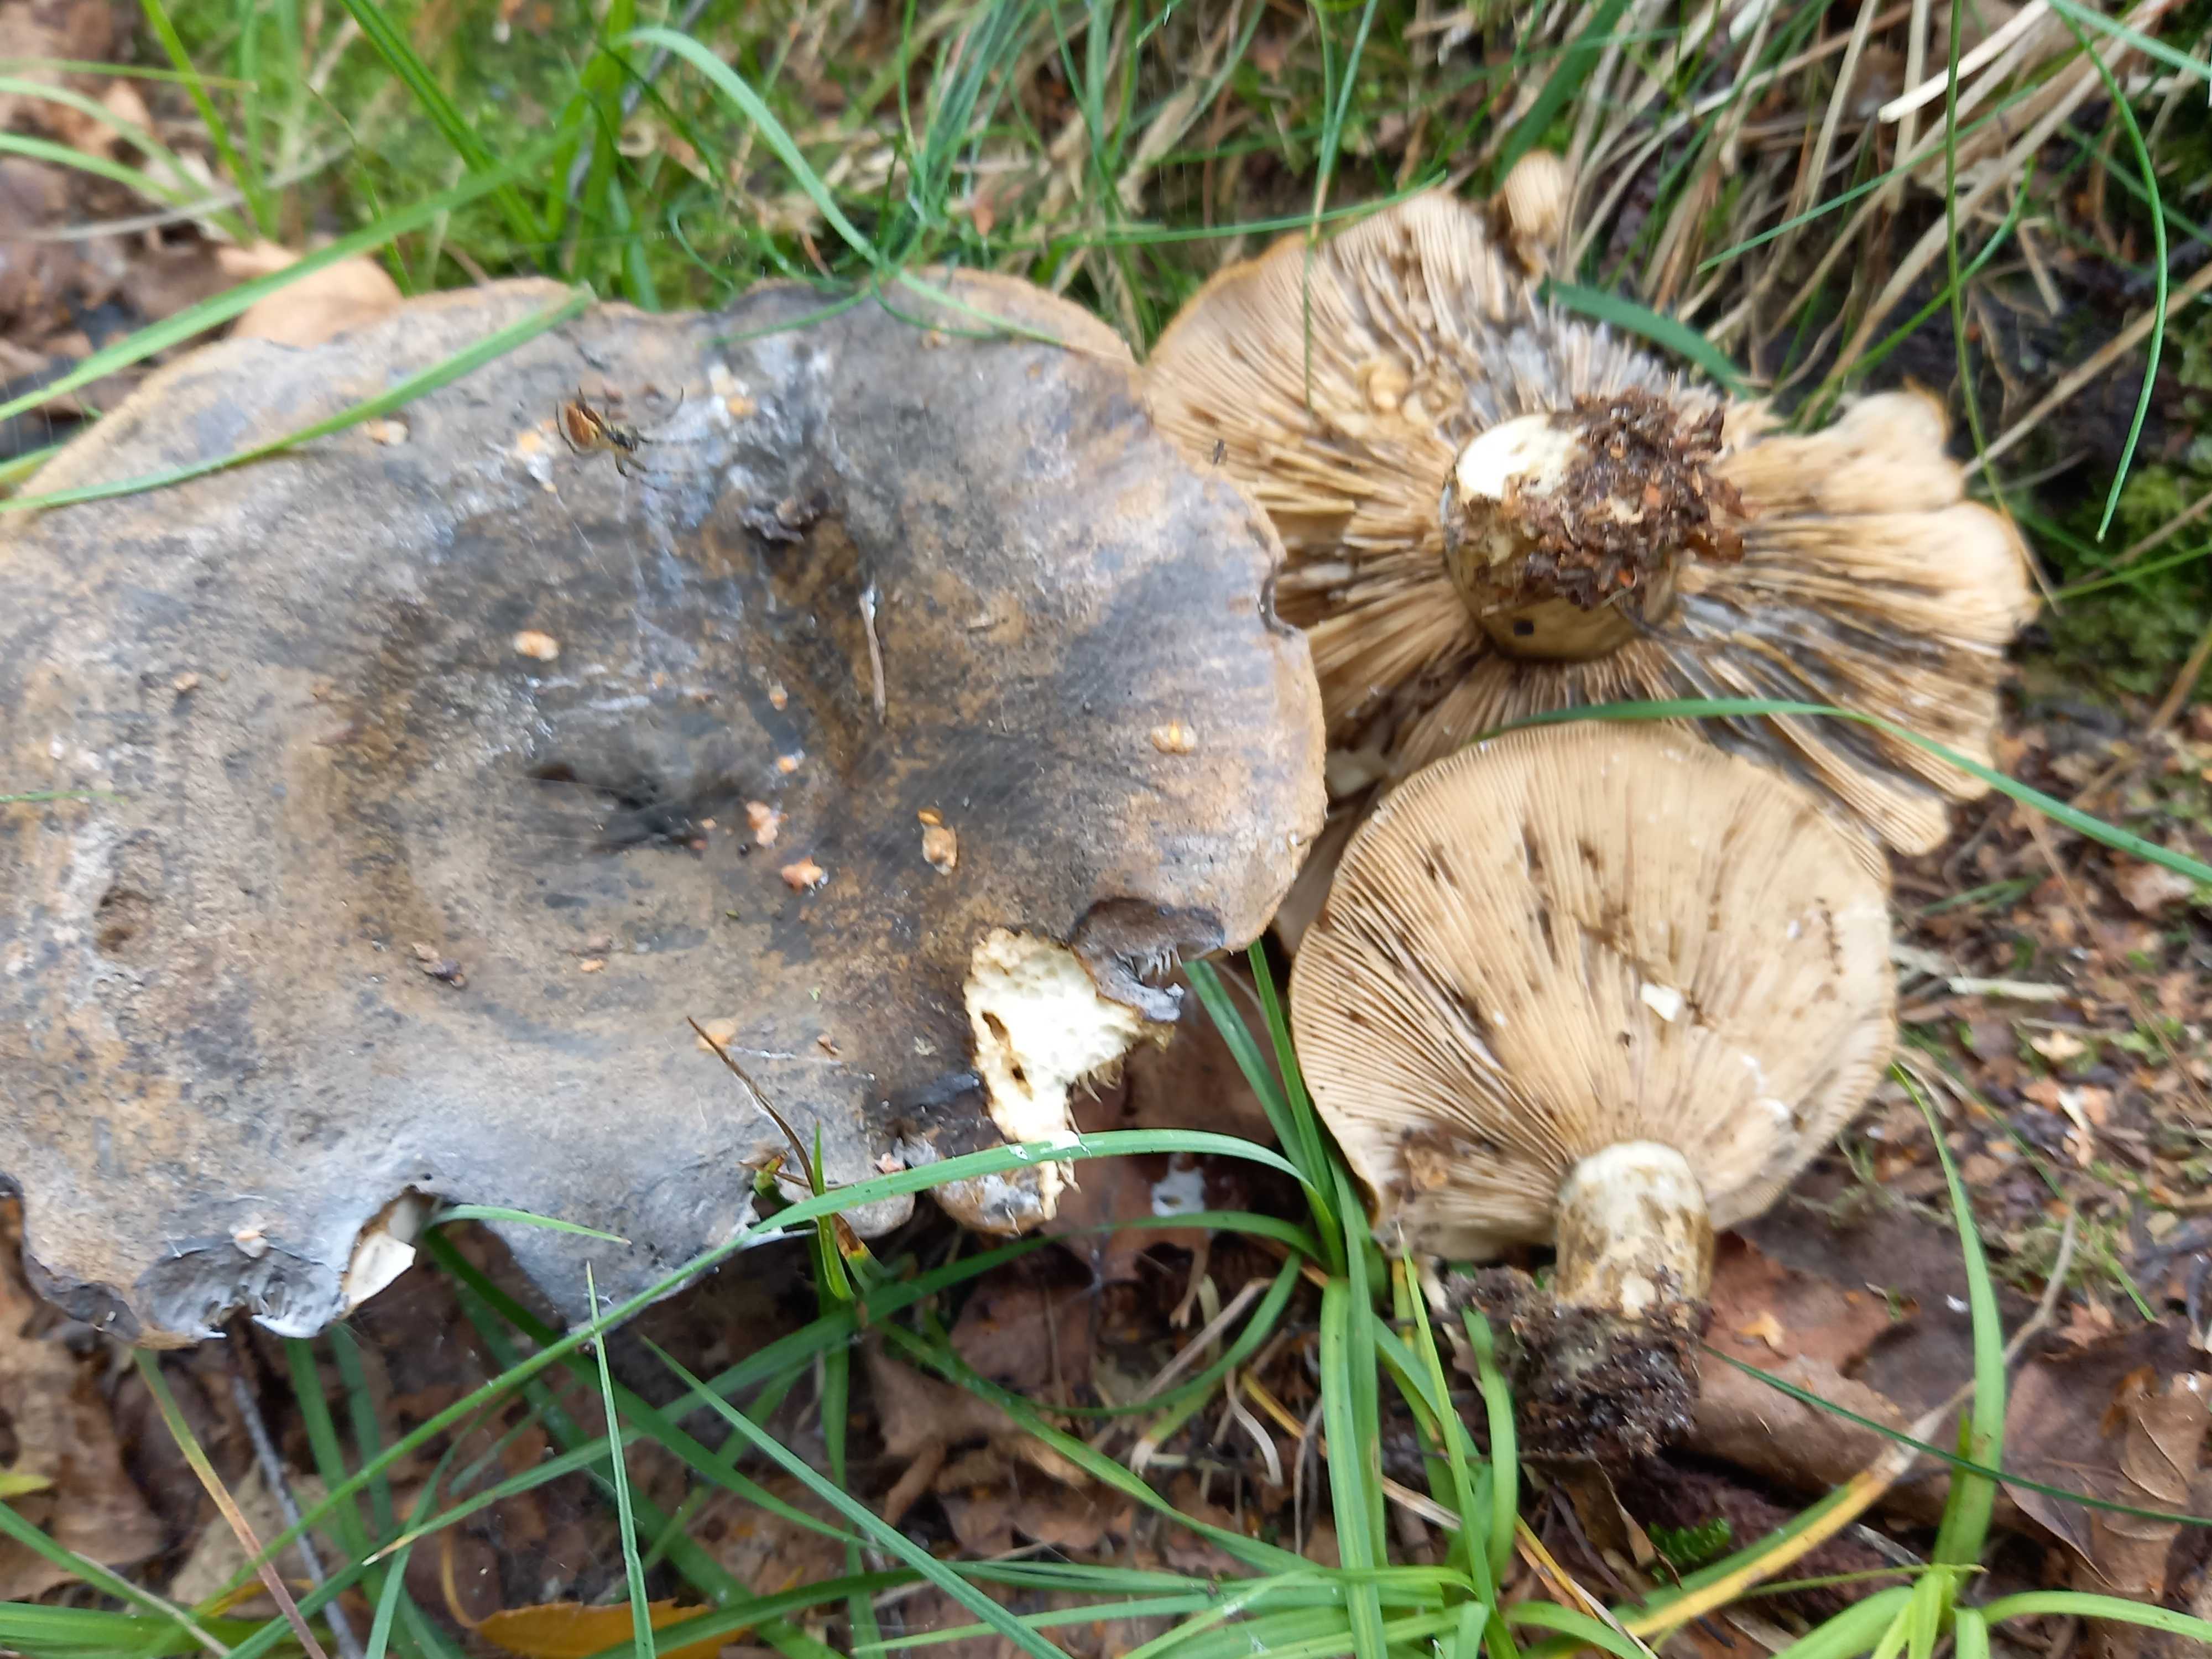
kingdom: Fungi
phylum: Basidiomycota
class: Agaricomycetes
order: Russulales
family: Russulaceae
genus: Lactarius
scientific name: Lactarius necator
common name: manddraber-mælkehat
